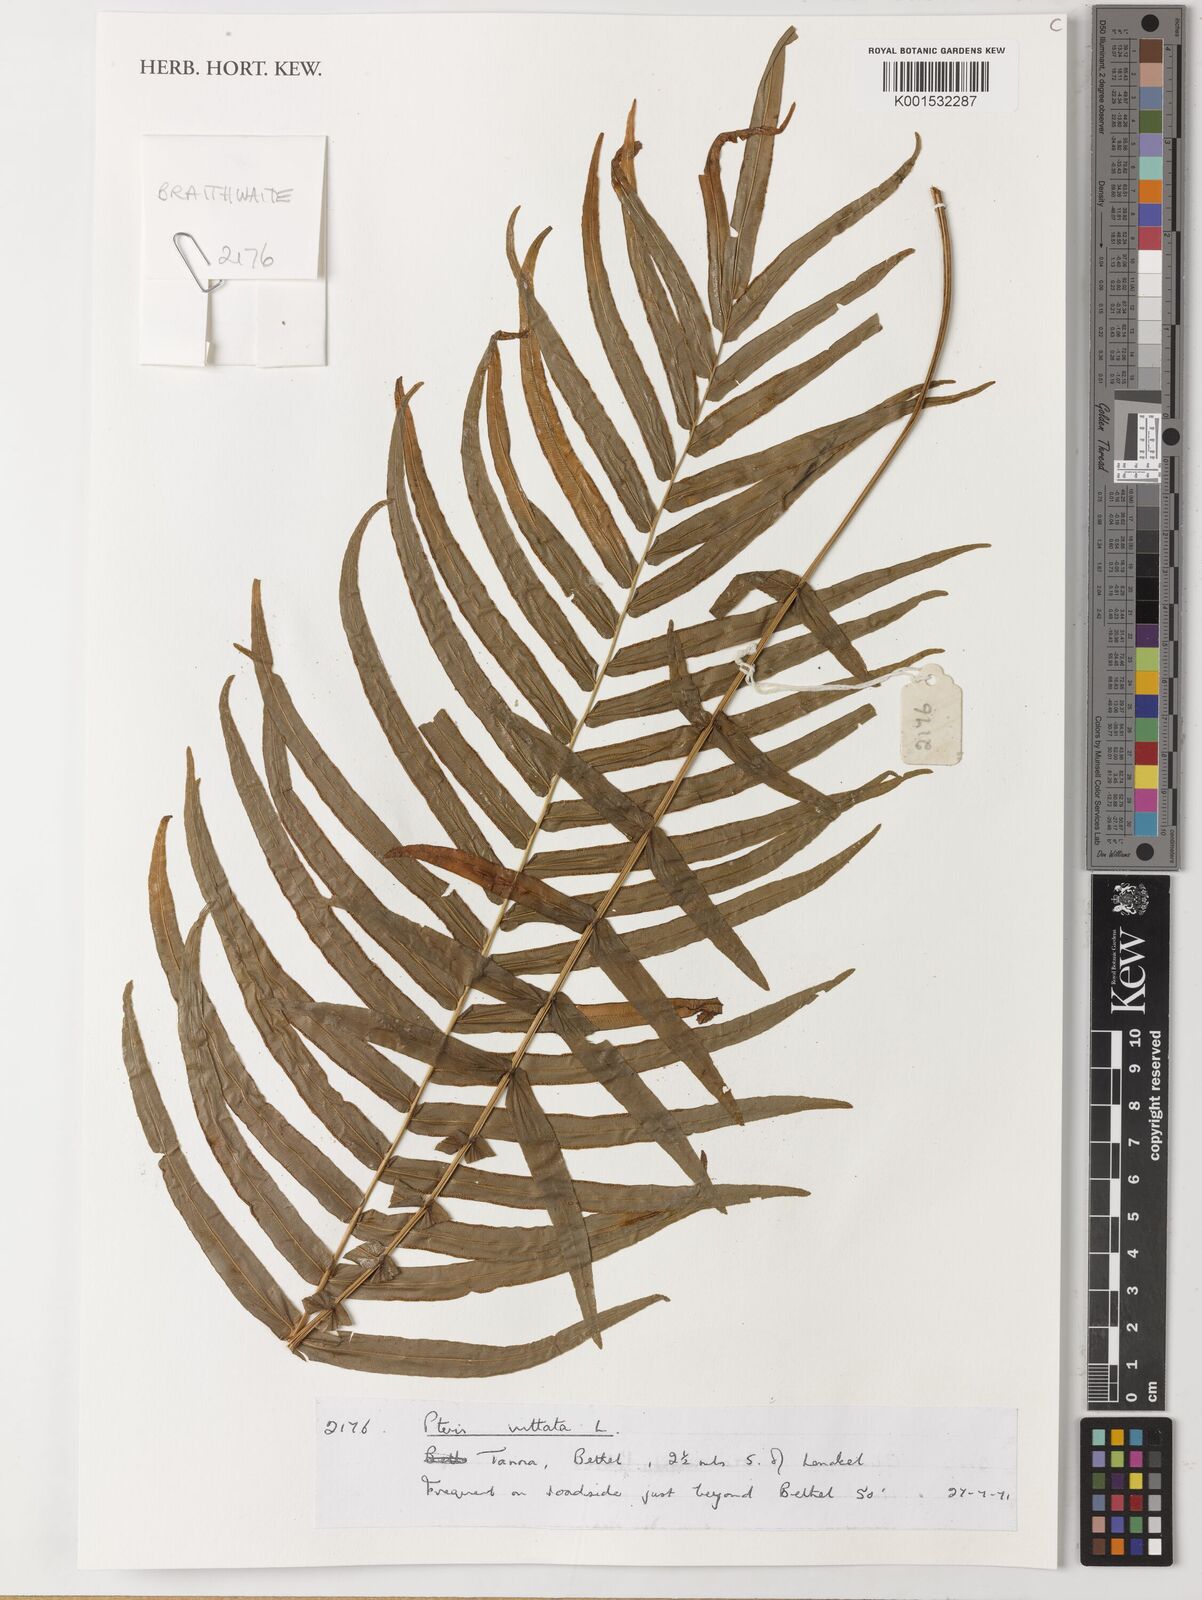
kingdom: Plantae
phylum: Tracheophyta
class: Polypodiopsida
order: Polypodiales
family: Pteridaceae
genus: Pteris
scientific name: Pteris vittata
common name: Ladder brake
